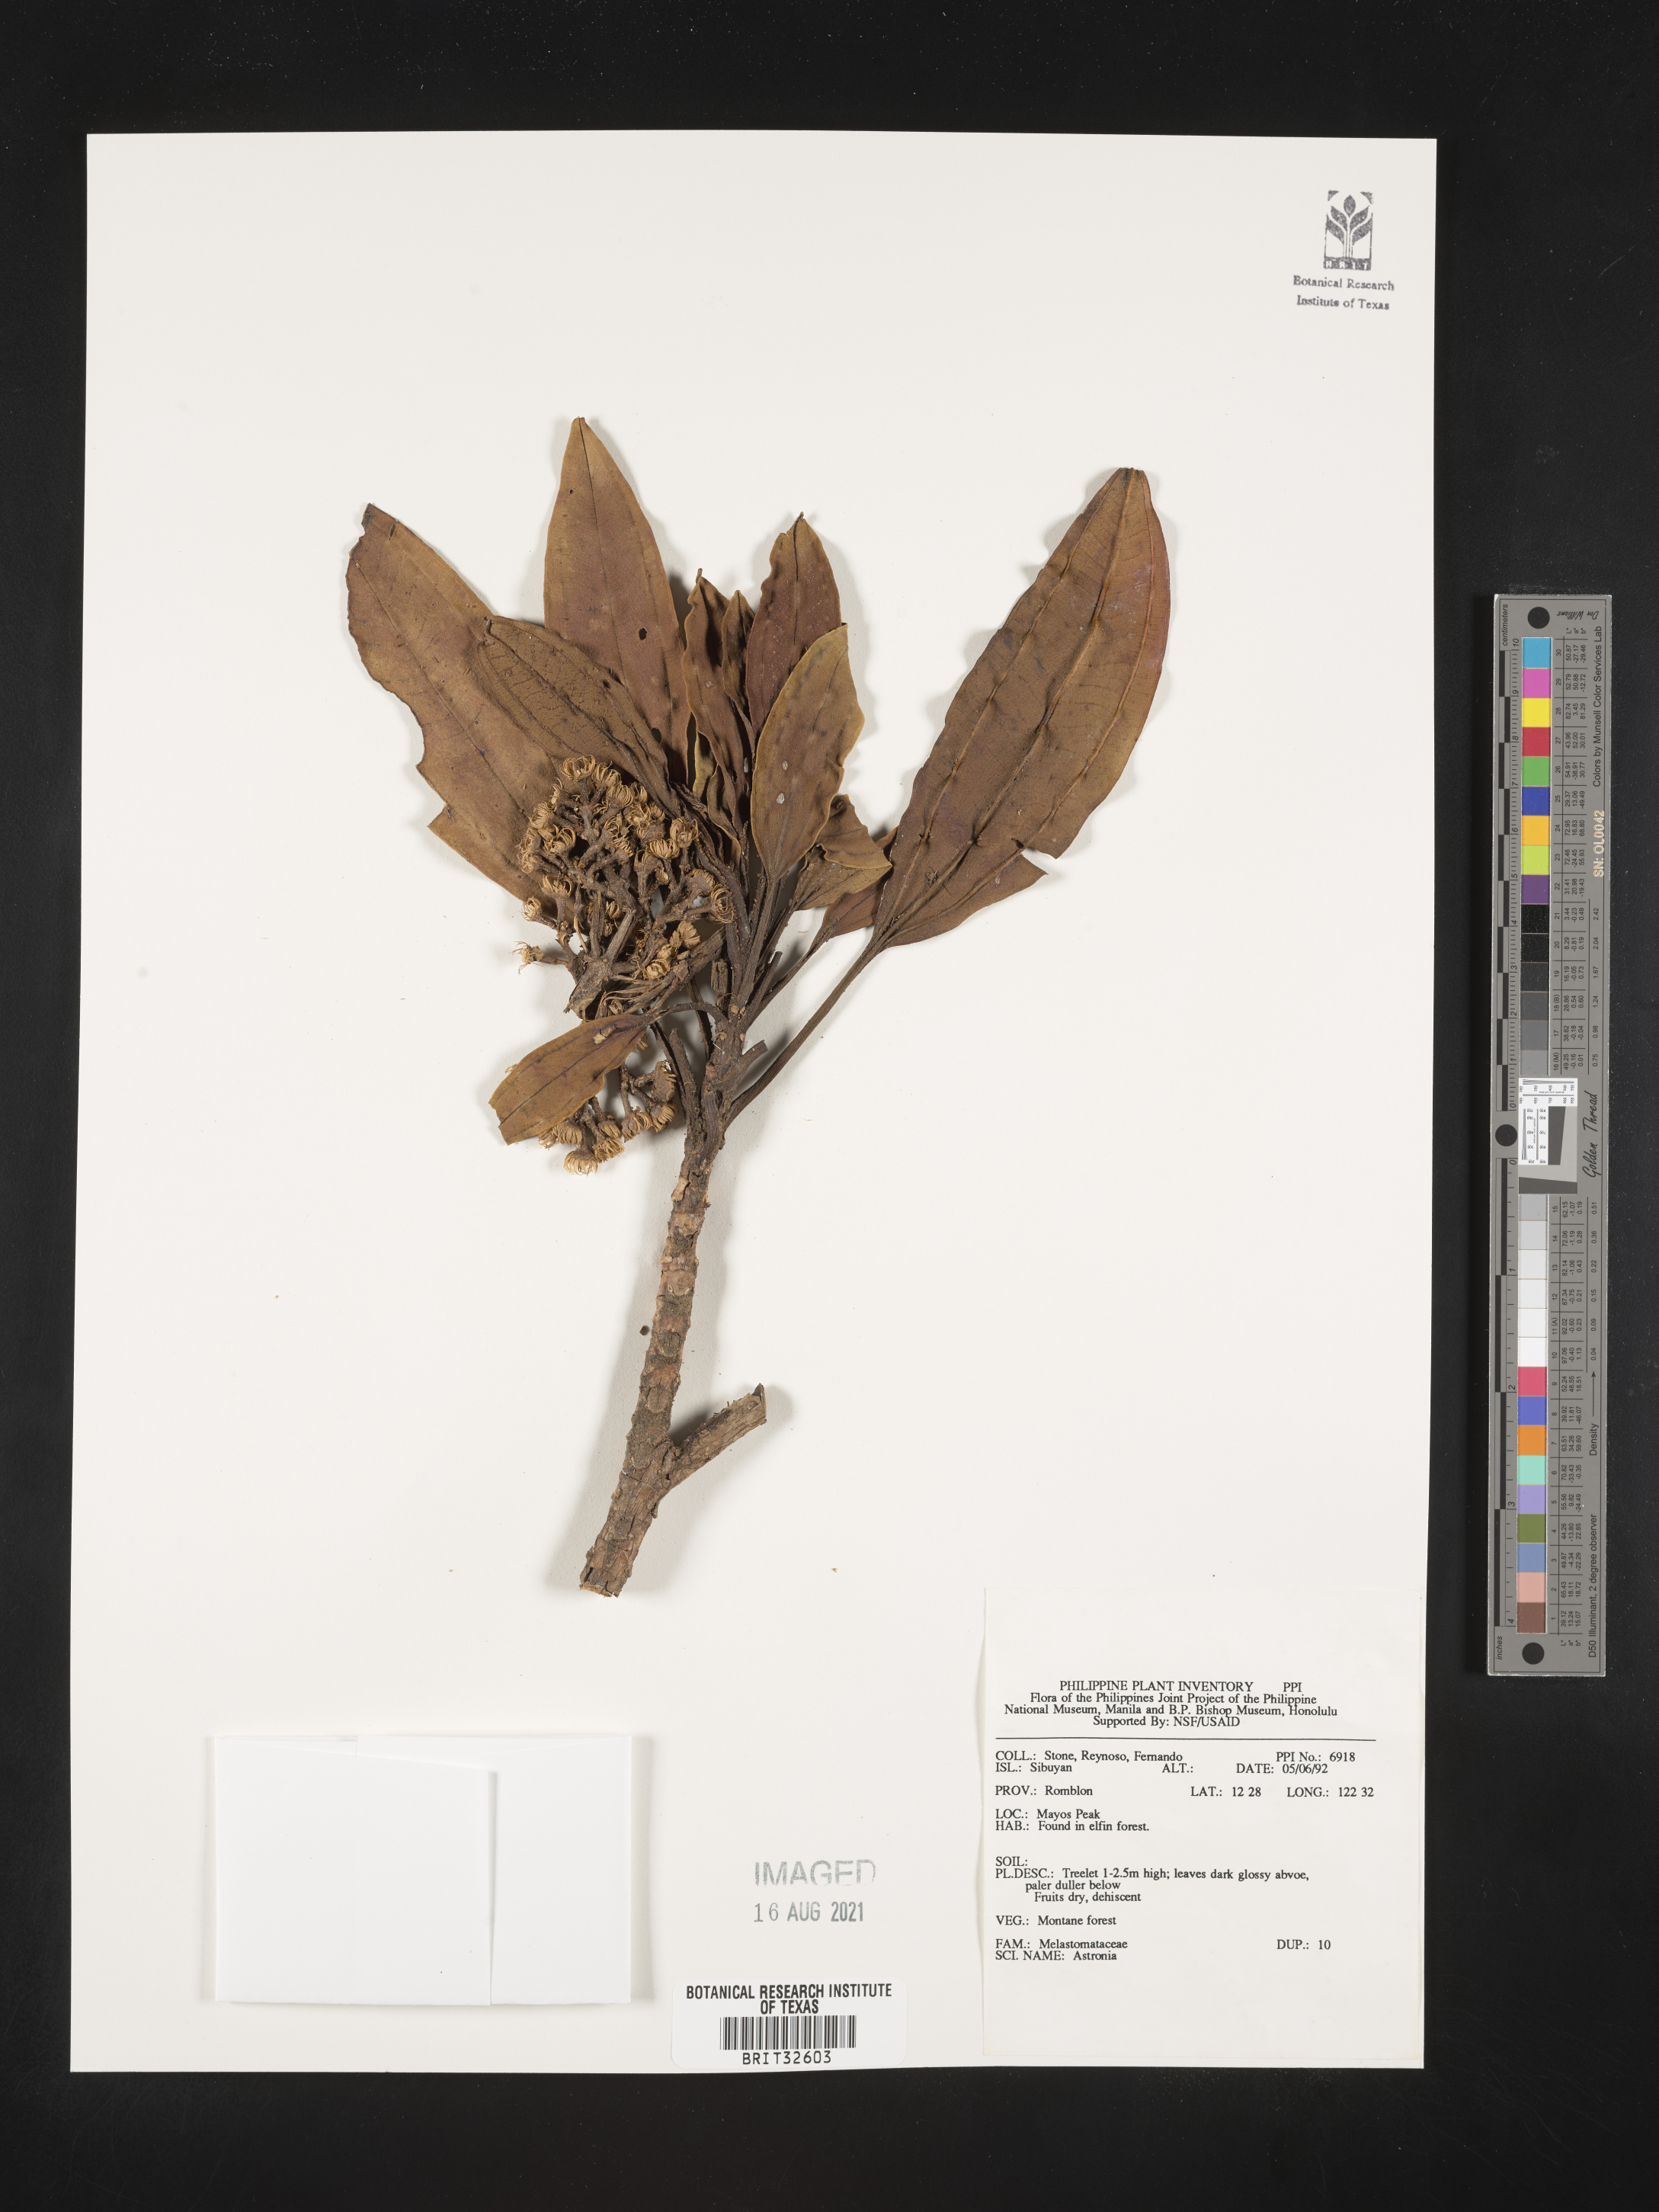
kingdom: Plantae
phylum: Tracheophyta
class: Magnoliopsida
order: Myrtales
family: Melastomataceae
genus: Astronia
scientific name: Astronia
